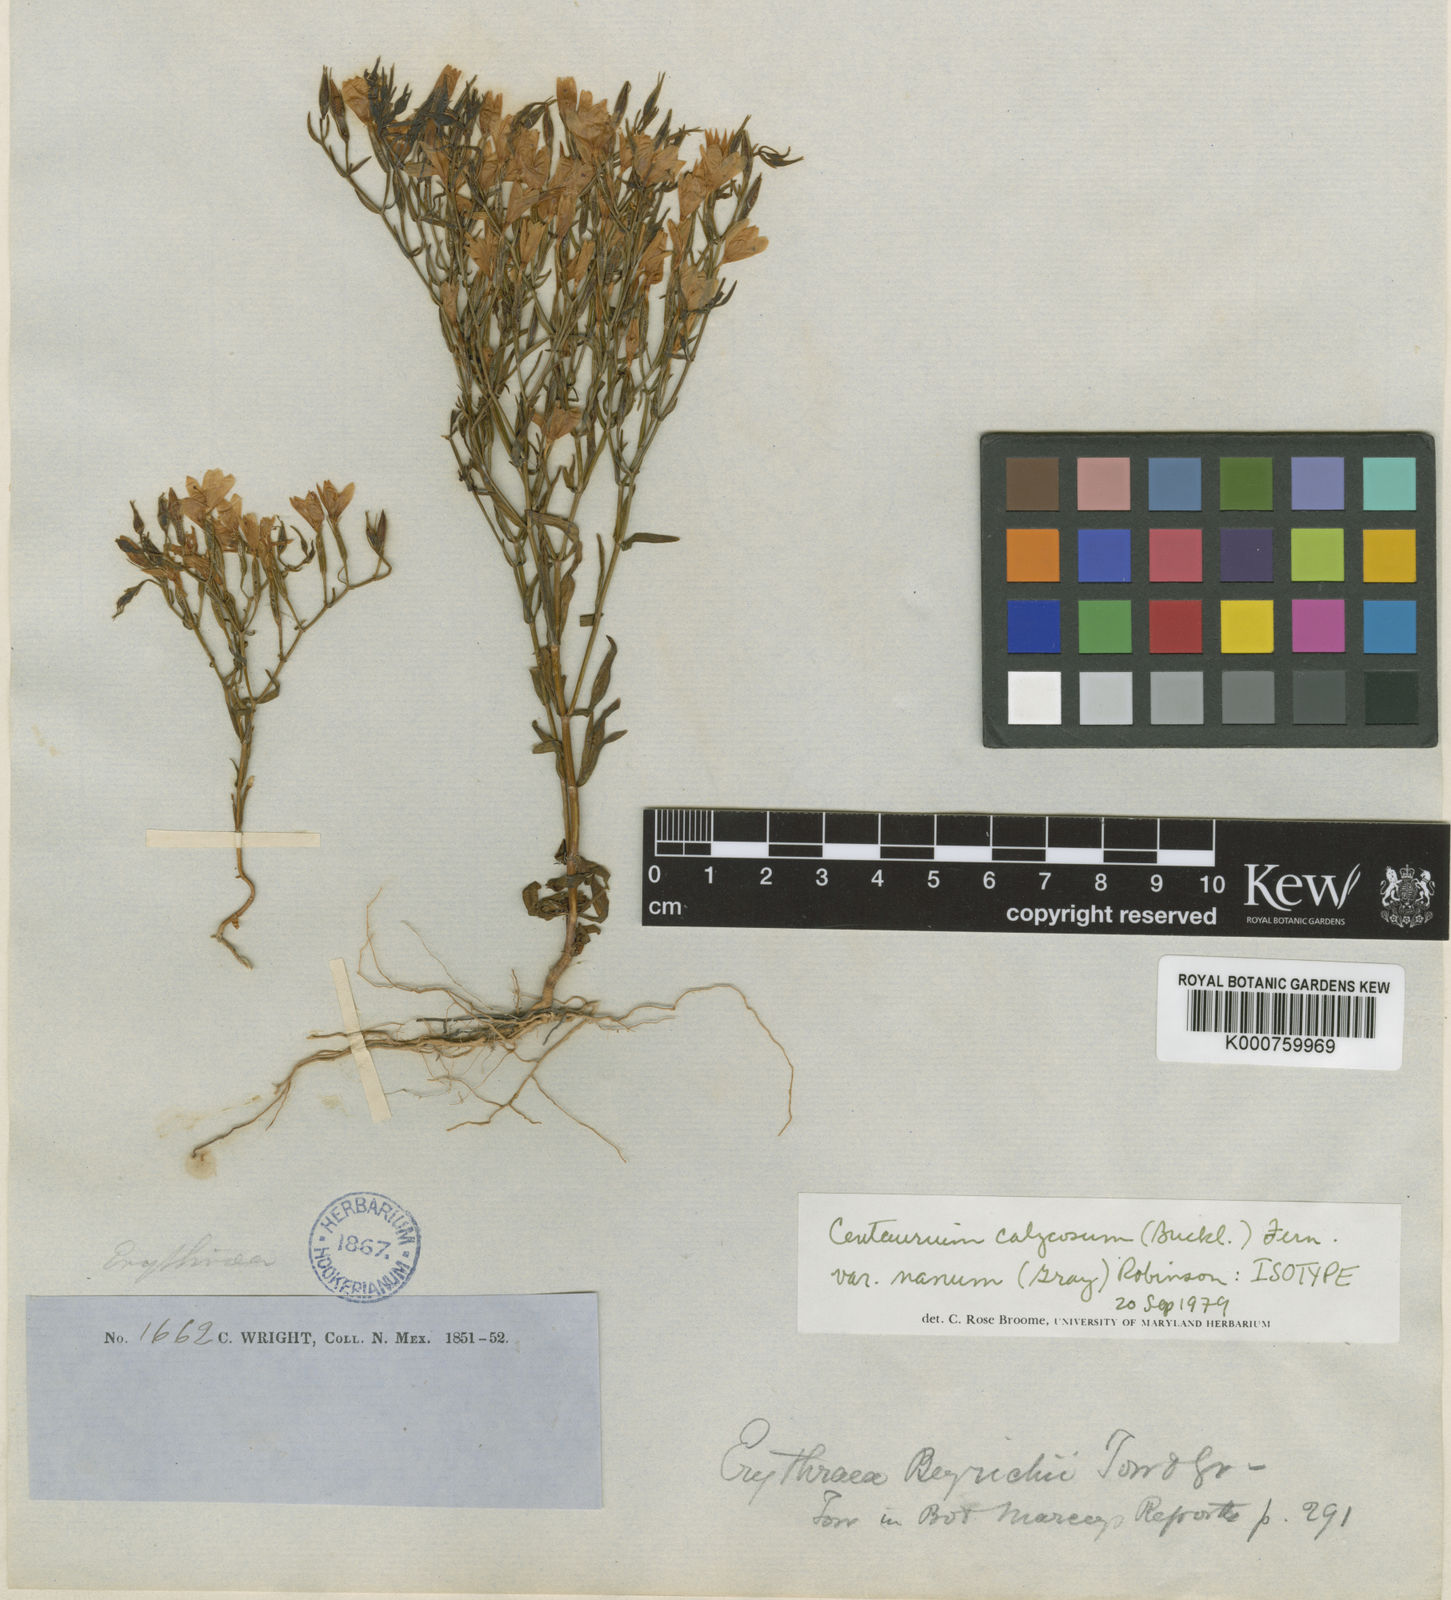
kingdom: Plantae
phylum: Tracheophyta
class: Magnoliopsida
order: Gentianales
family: Gentianaceae
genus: Zeltnera
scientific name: Zeltnera calycosa
